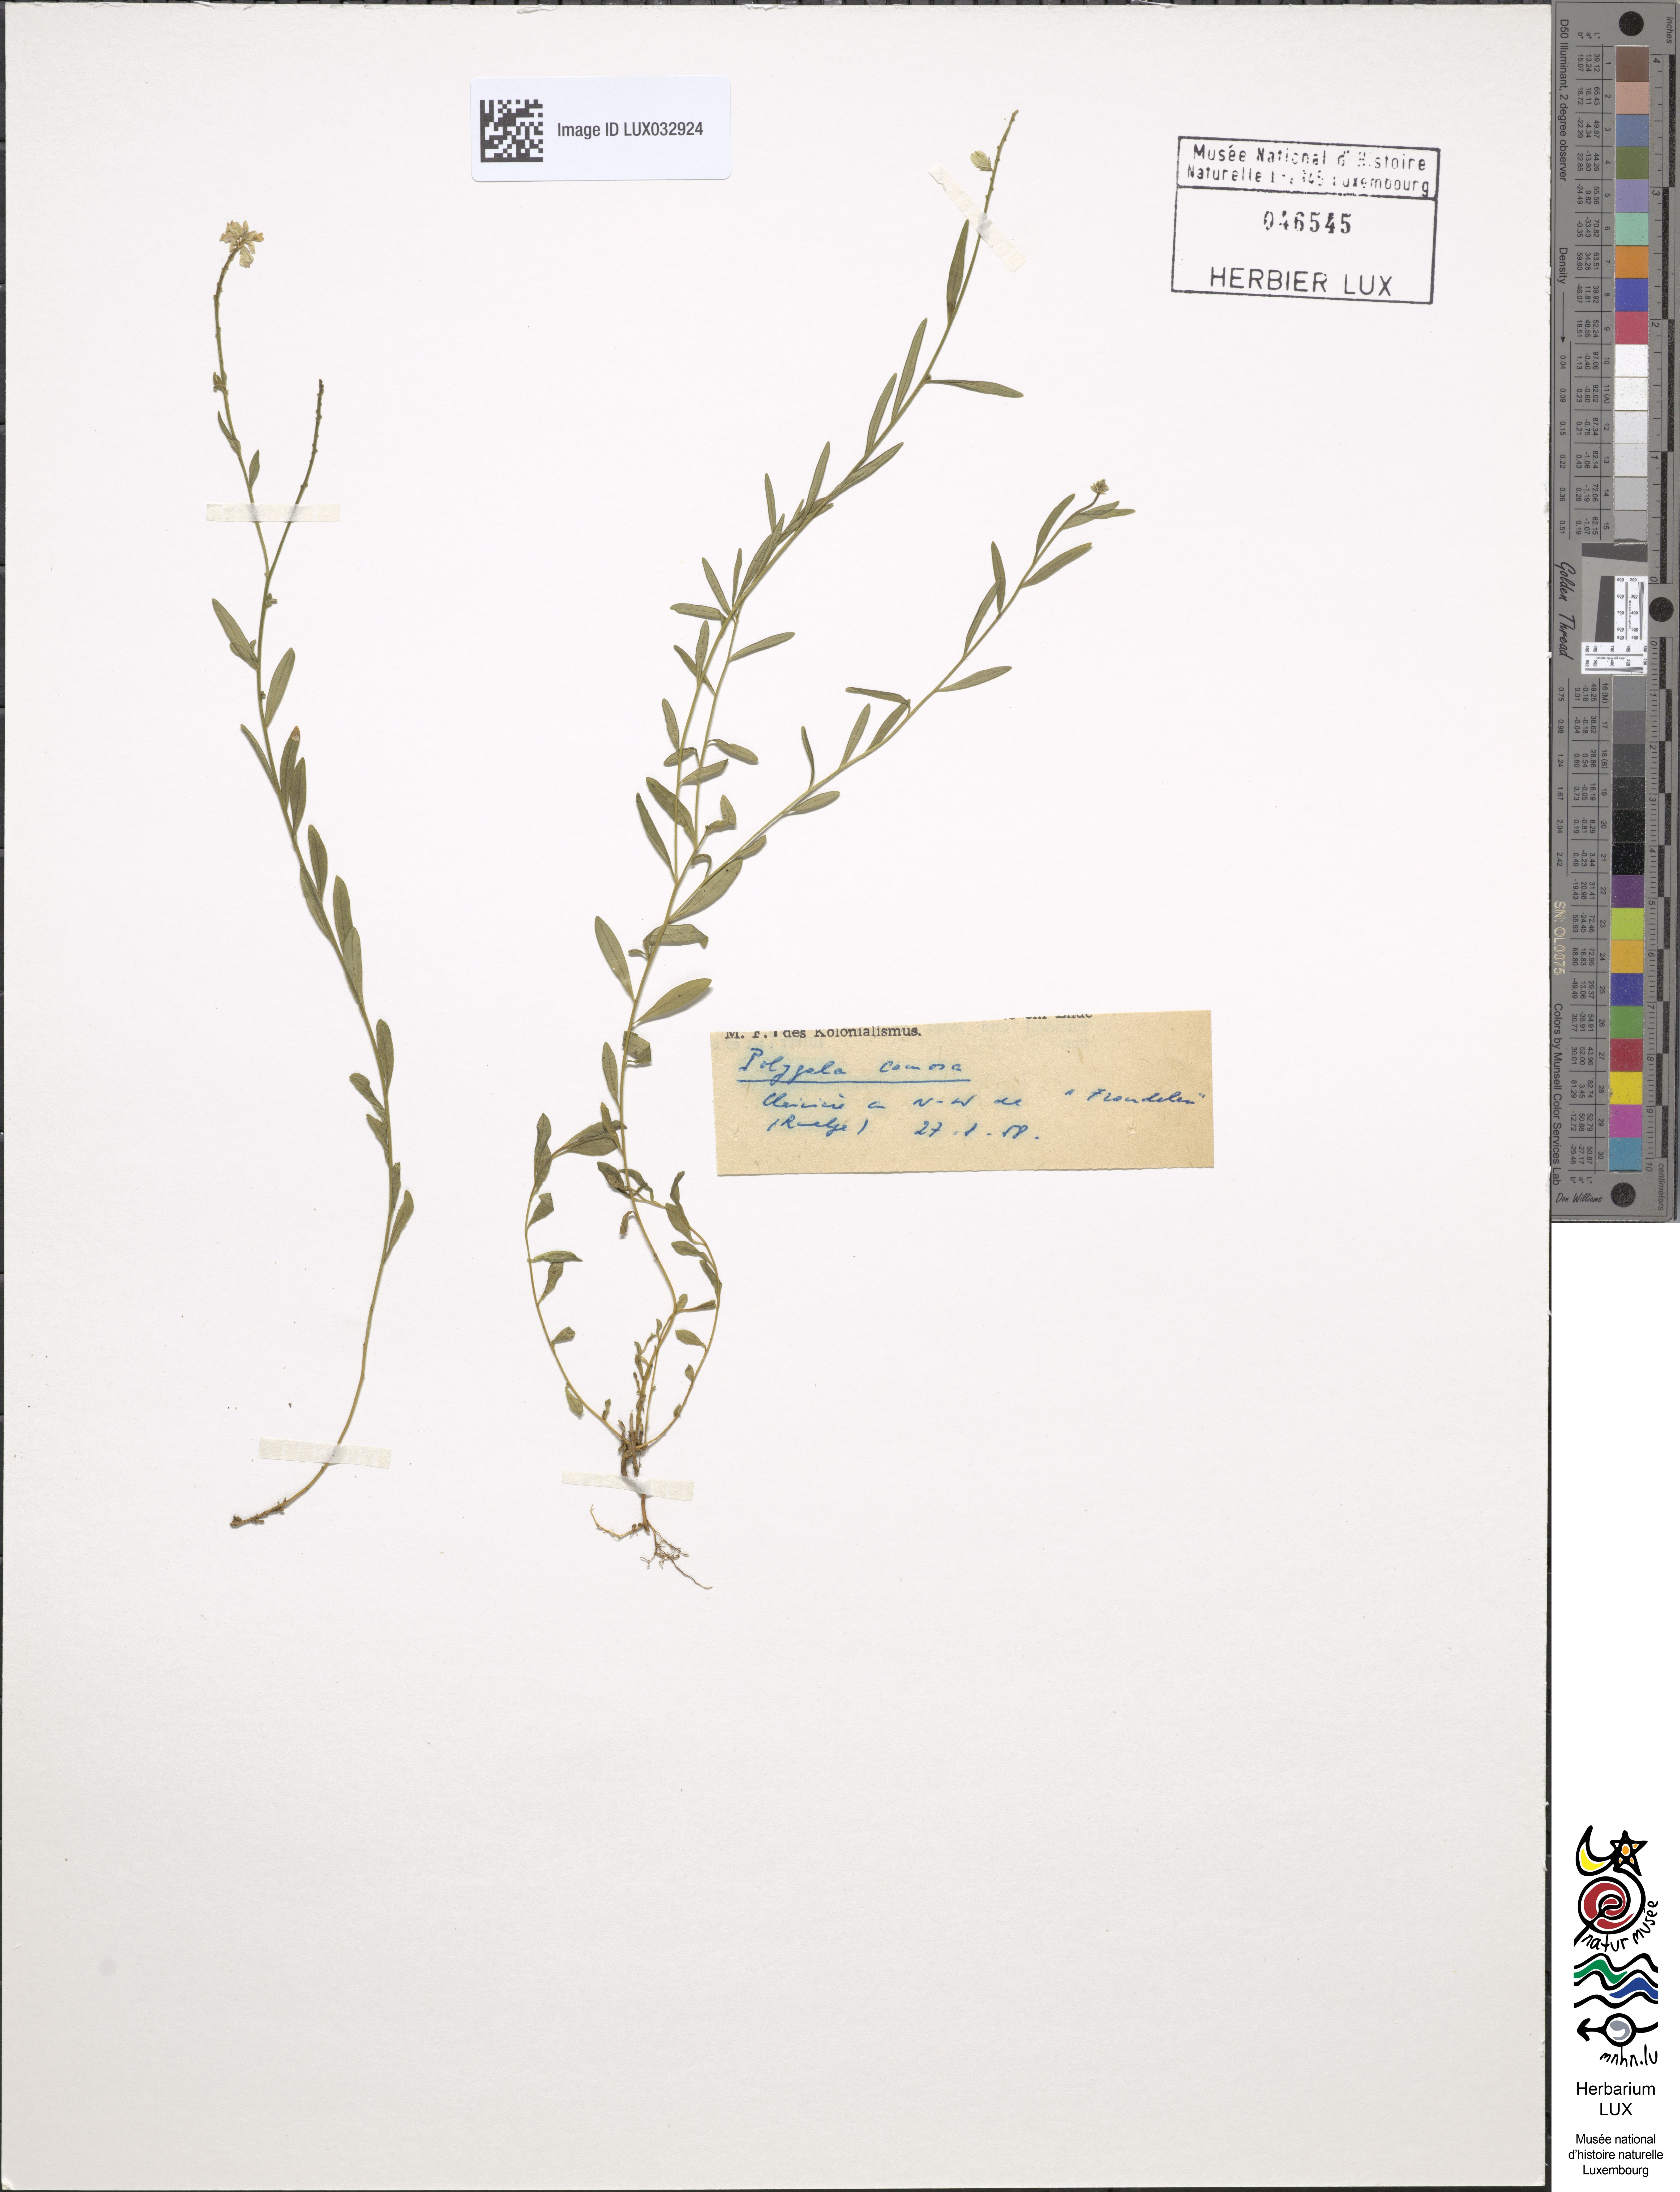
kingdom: Plantae
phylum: Tracheophyta
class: Magnoliopsida
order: Fabales
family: Polygalaceae
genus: Polygala
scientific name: Polygala comosa
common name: Tufted milkwort
